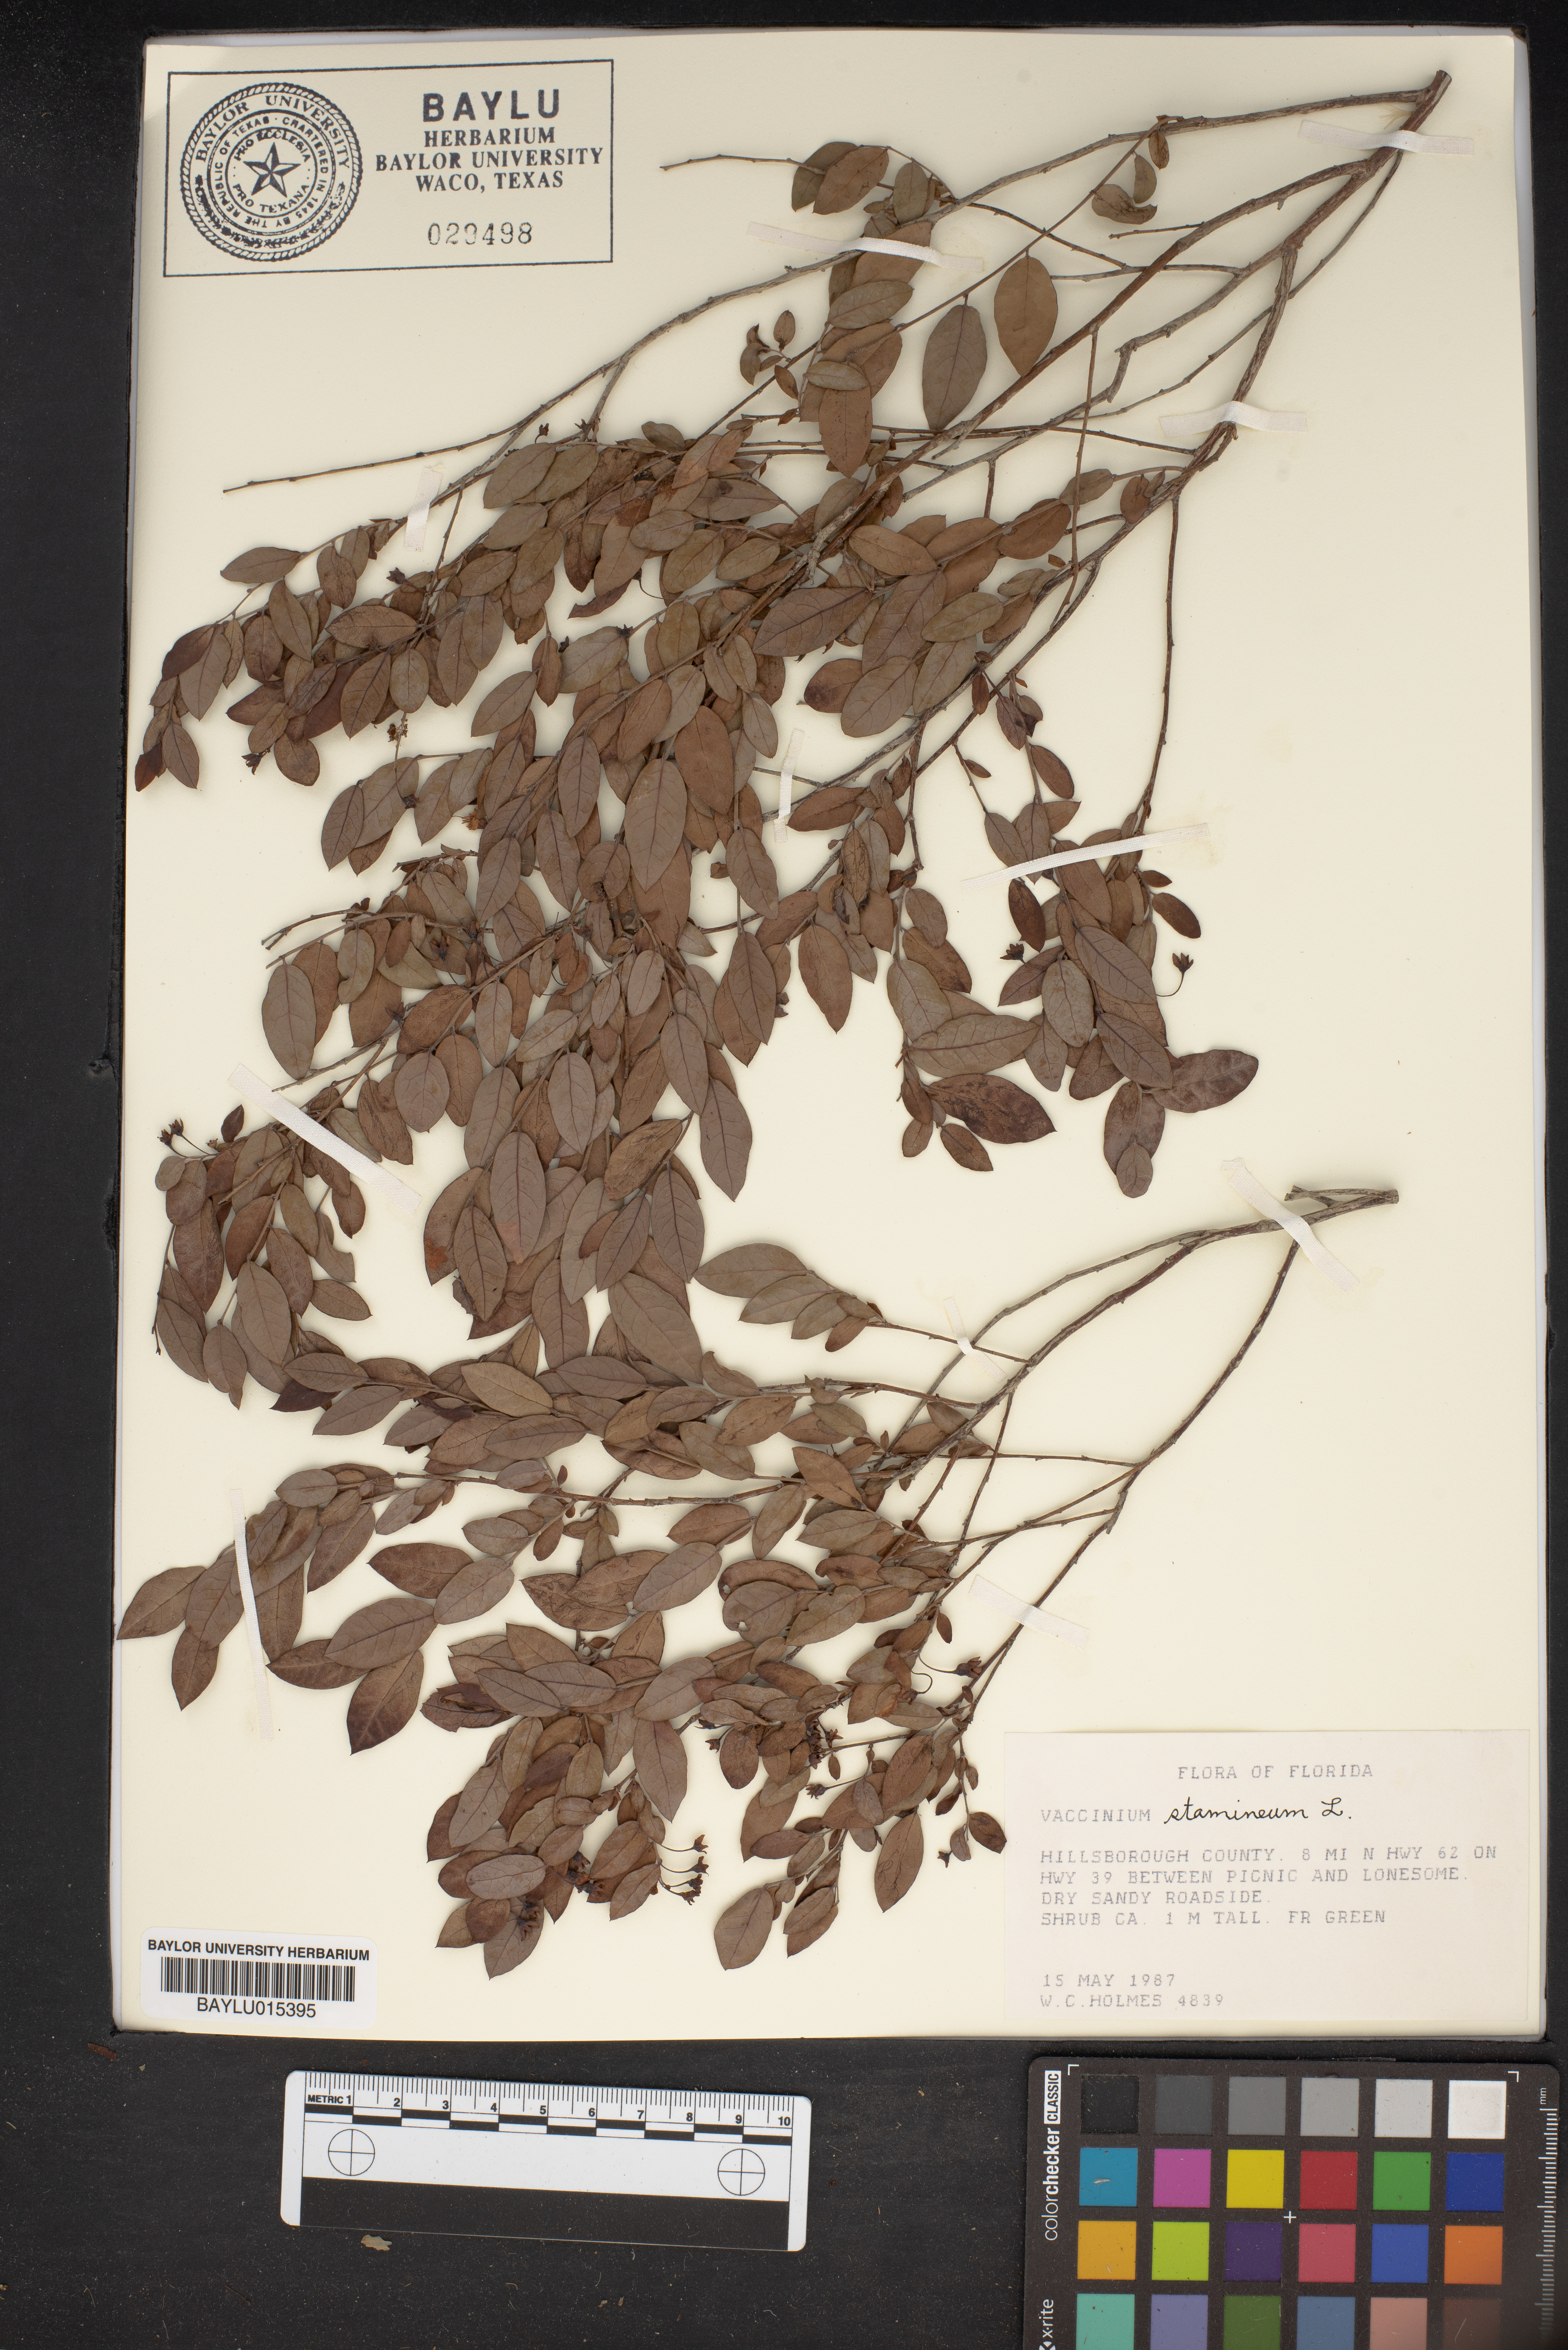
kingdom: Plantae
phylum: Tracheophyta
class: Magnoliopsida
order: Ericales
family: Ericaceae
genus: Vaccinium
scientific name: Vaccinium stamineum
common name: Deerberry
